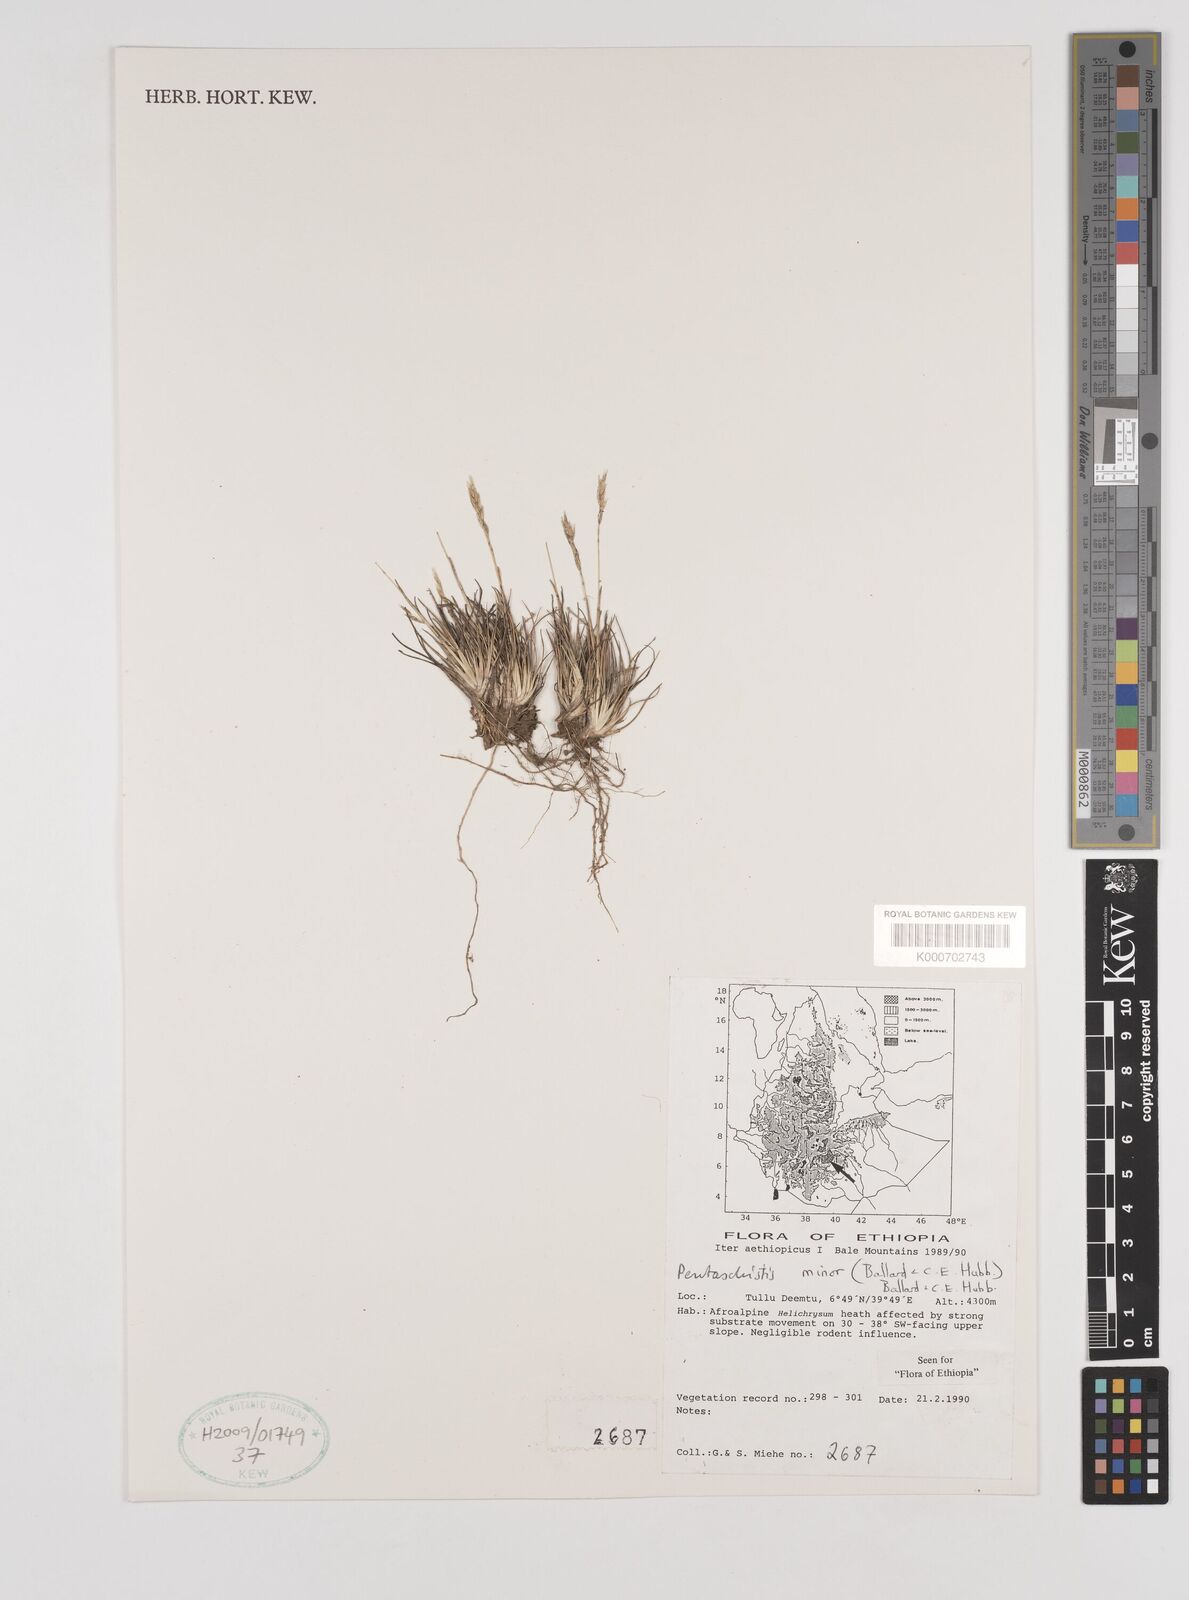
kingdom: Plantae
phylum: Tracheophyta
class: Liliopsida
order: Poales
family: Poaceae
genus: Pentameris
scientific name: Pentameris minor
